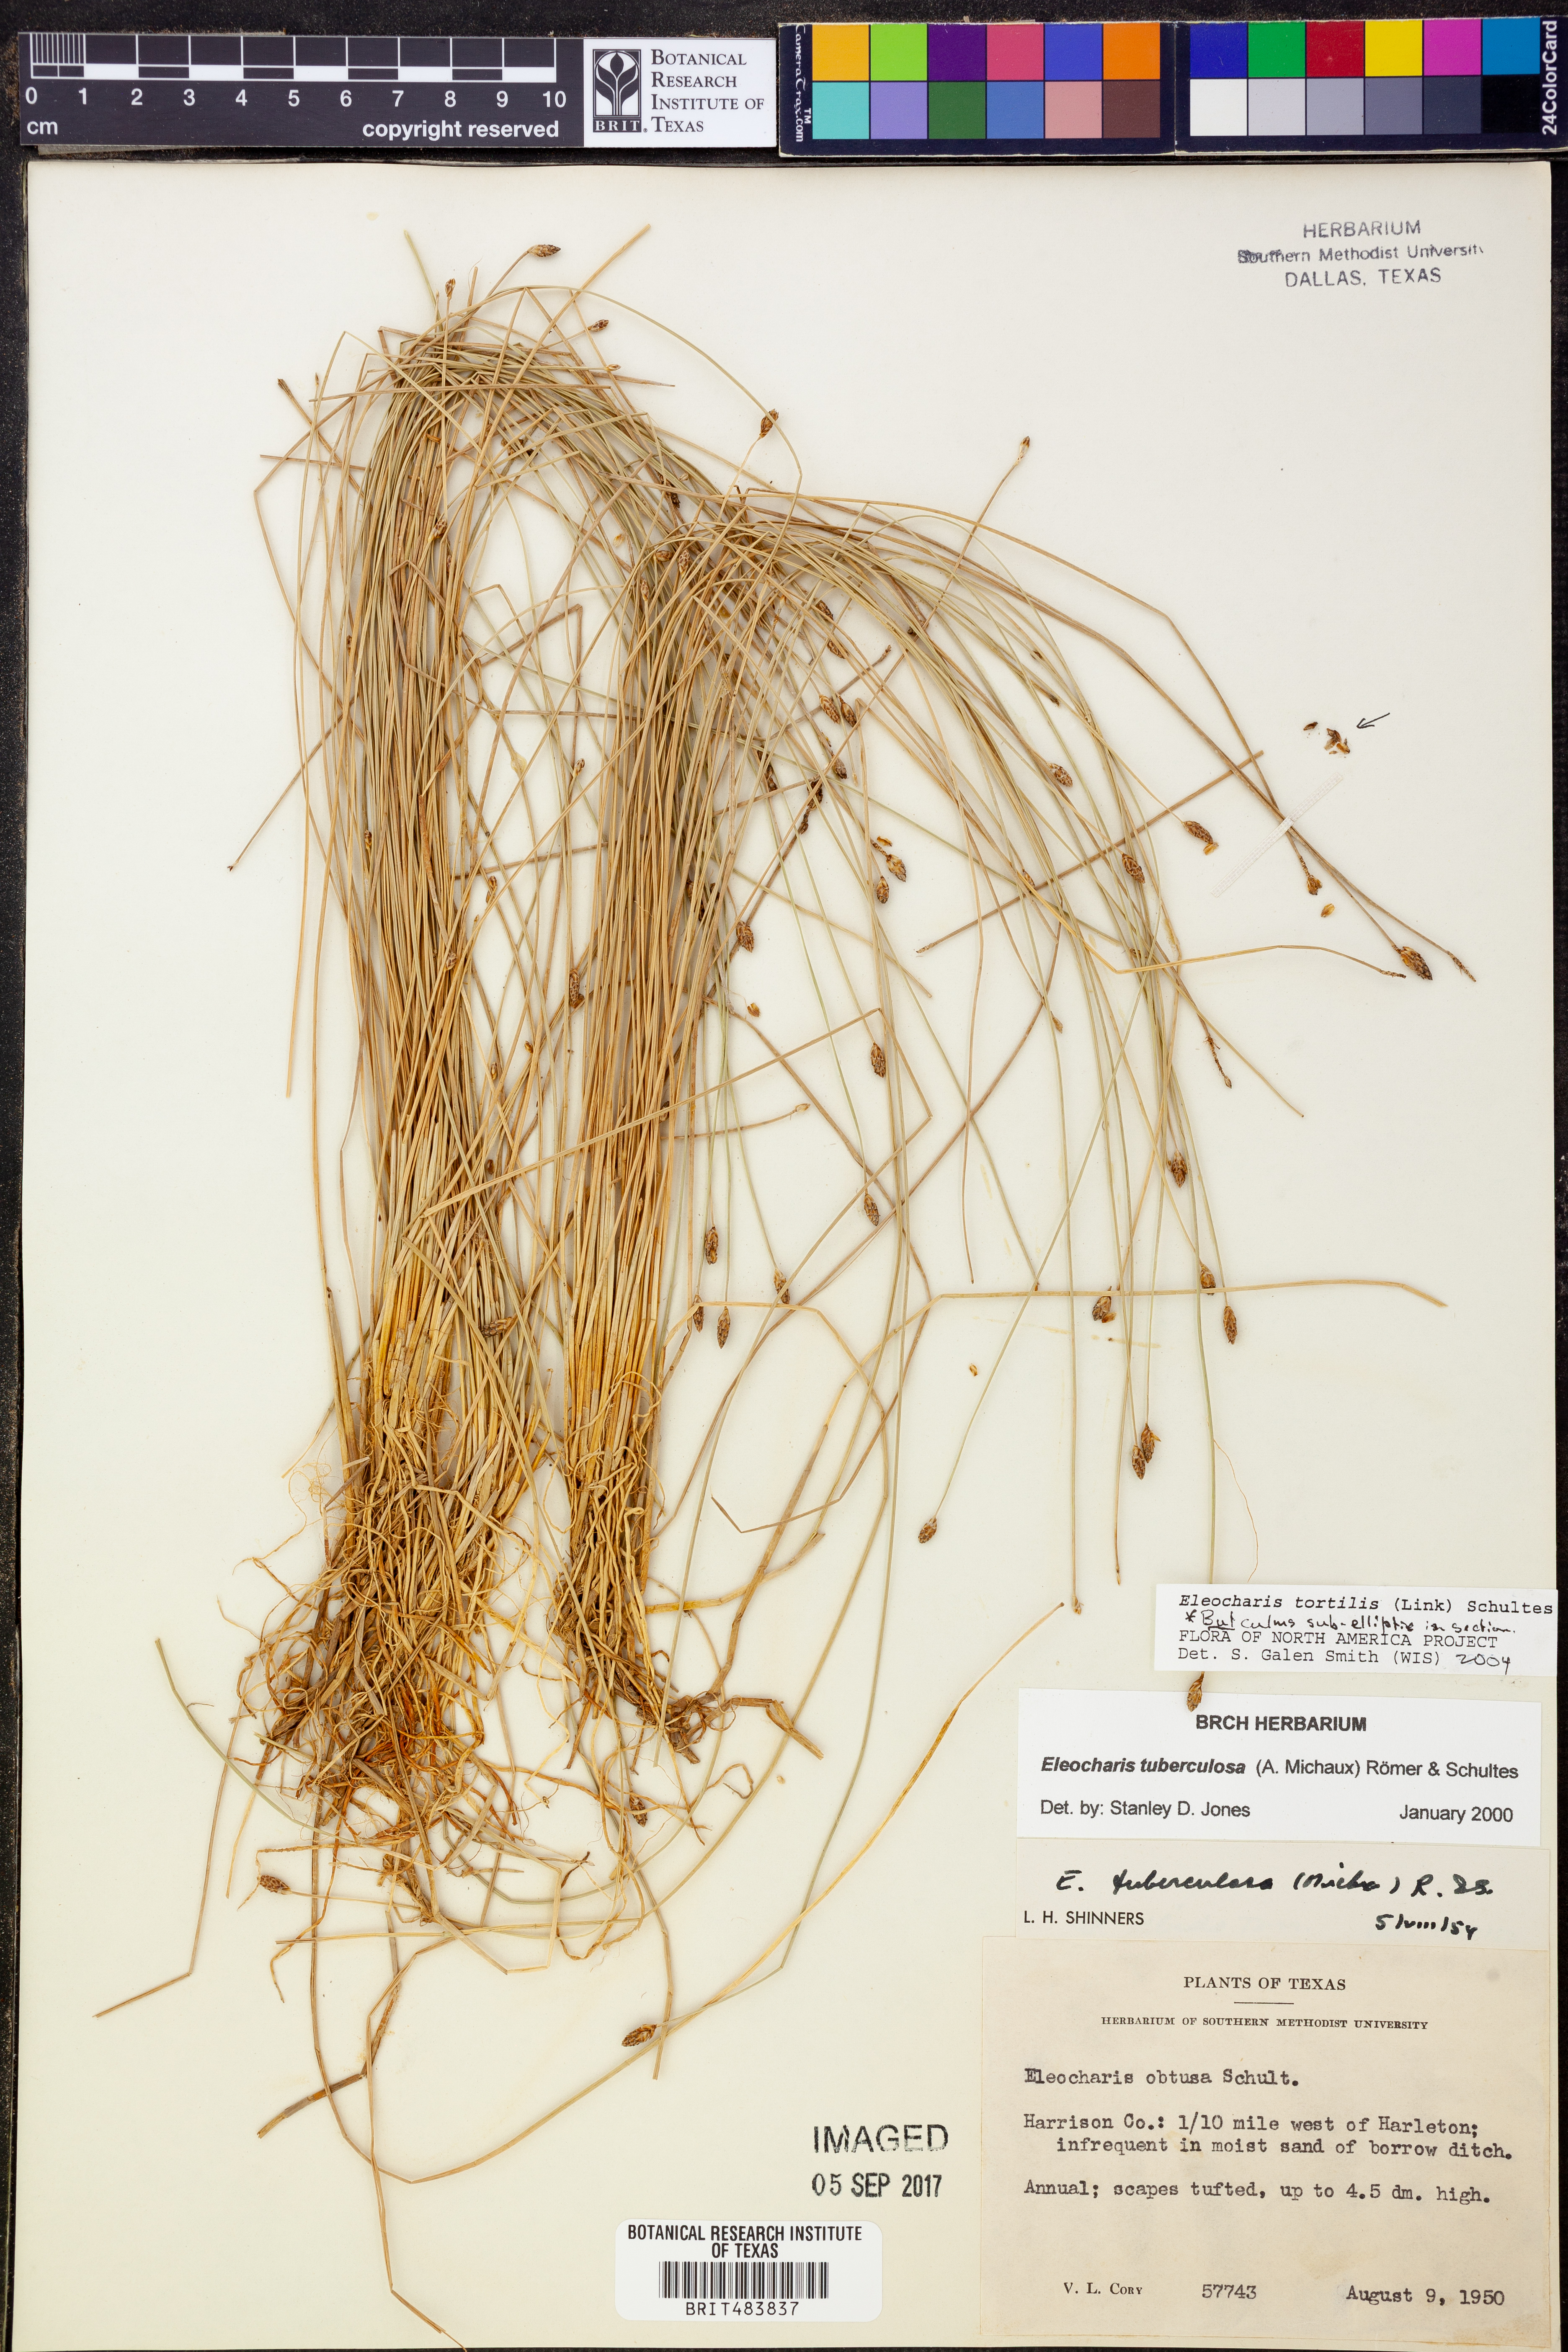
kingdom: Plantae
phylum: Tracheophyta
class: Liliopsida
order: Poales
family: Cyperaceae
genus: Eleocharis
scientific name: Eleocharis tortilis
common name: Twisted spike sedge
